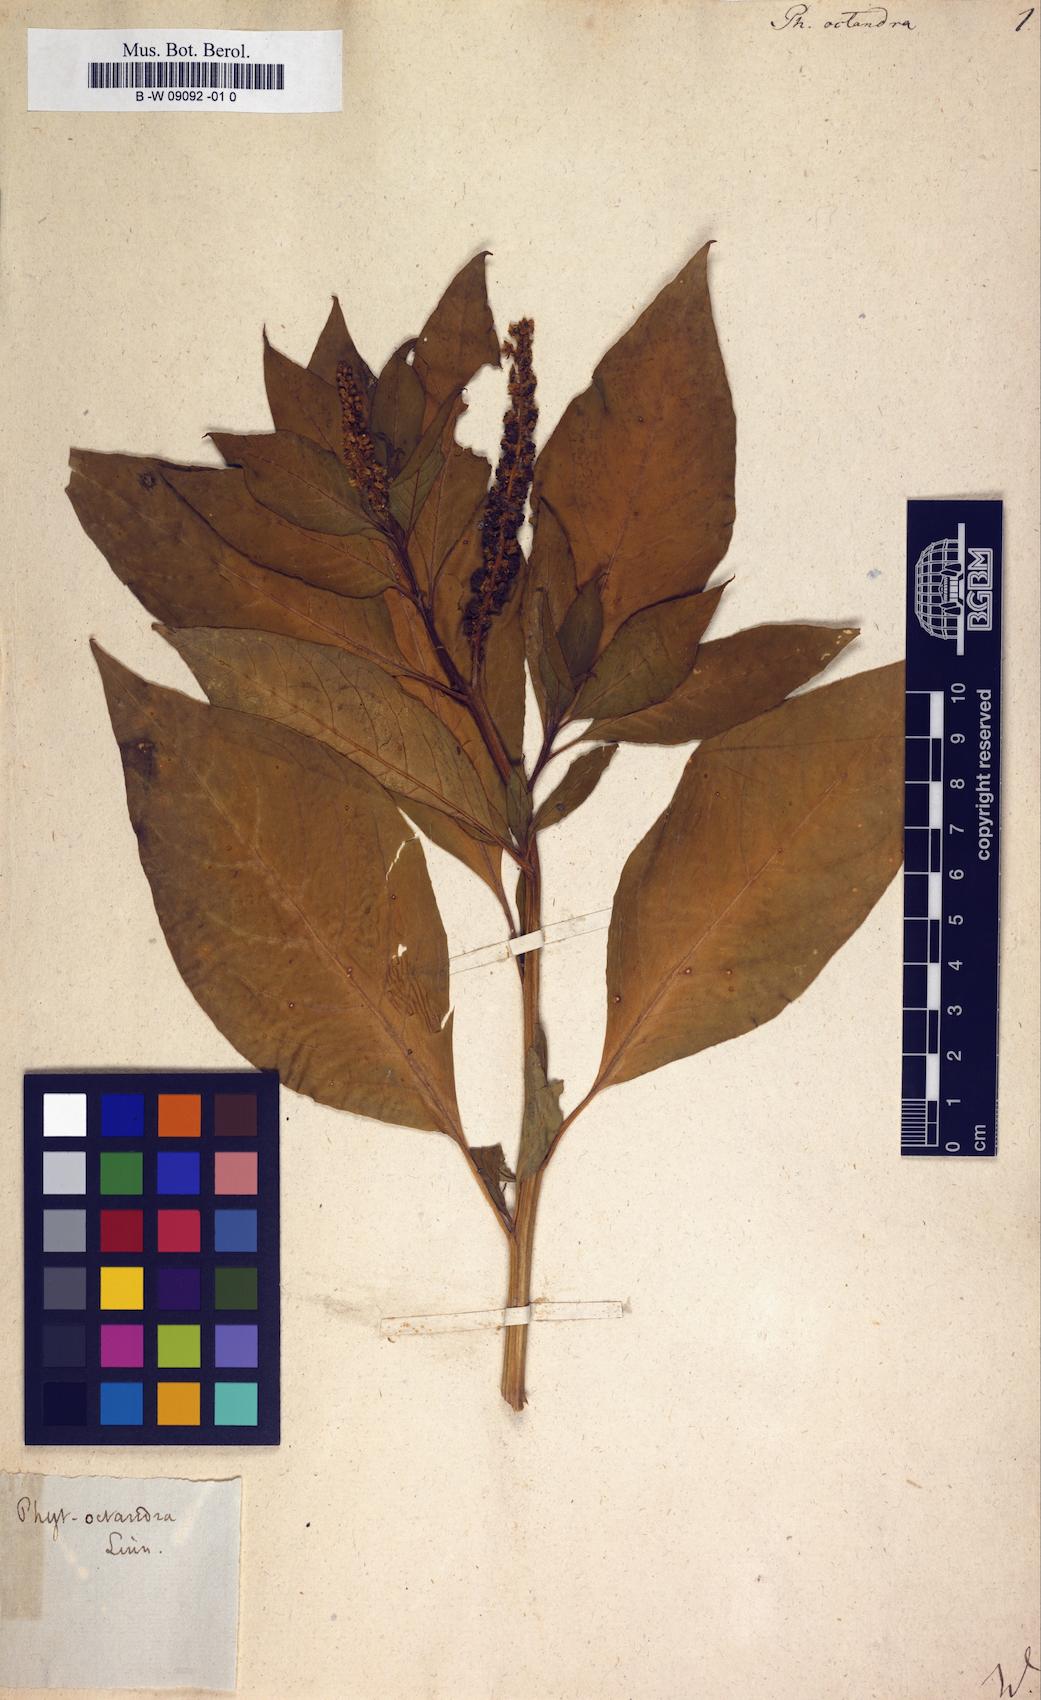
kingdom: Plantae
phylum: Tracheophyta
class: Magnoliopsida
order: Caryophyllales
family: Phytolaccaceae
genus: Phytolacca
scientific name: Phytolacca icosandra
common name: Button pokeweed
